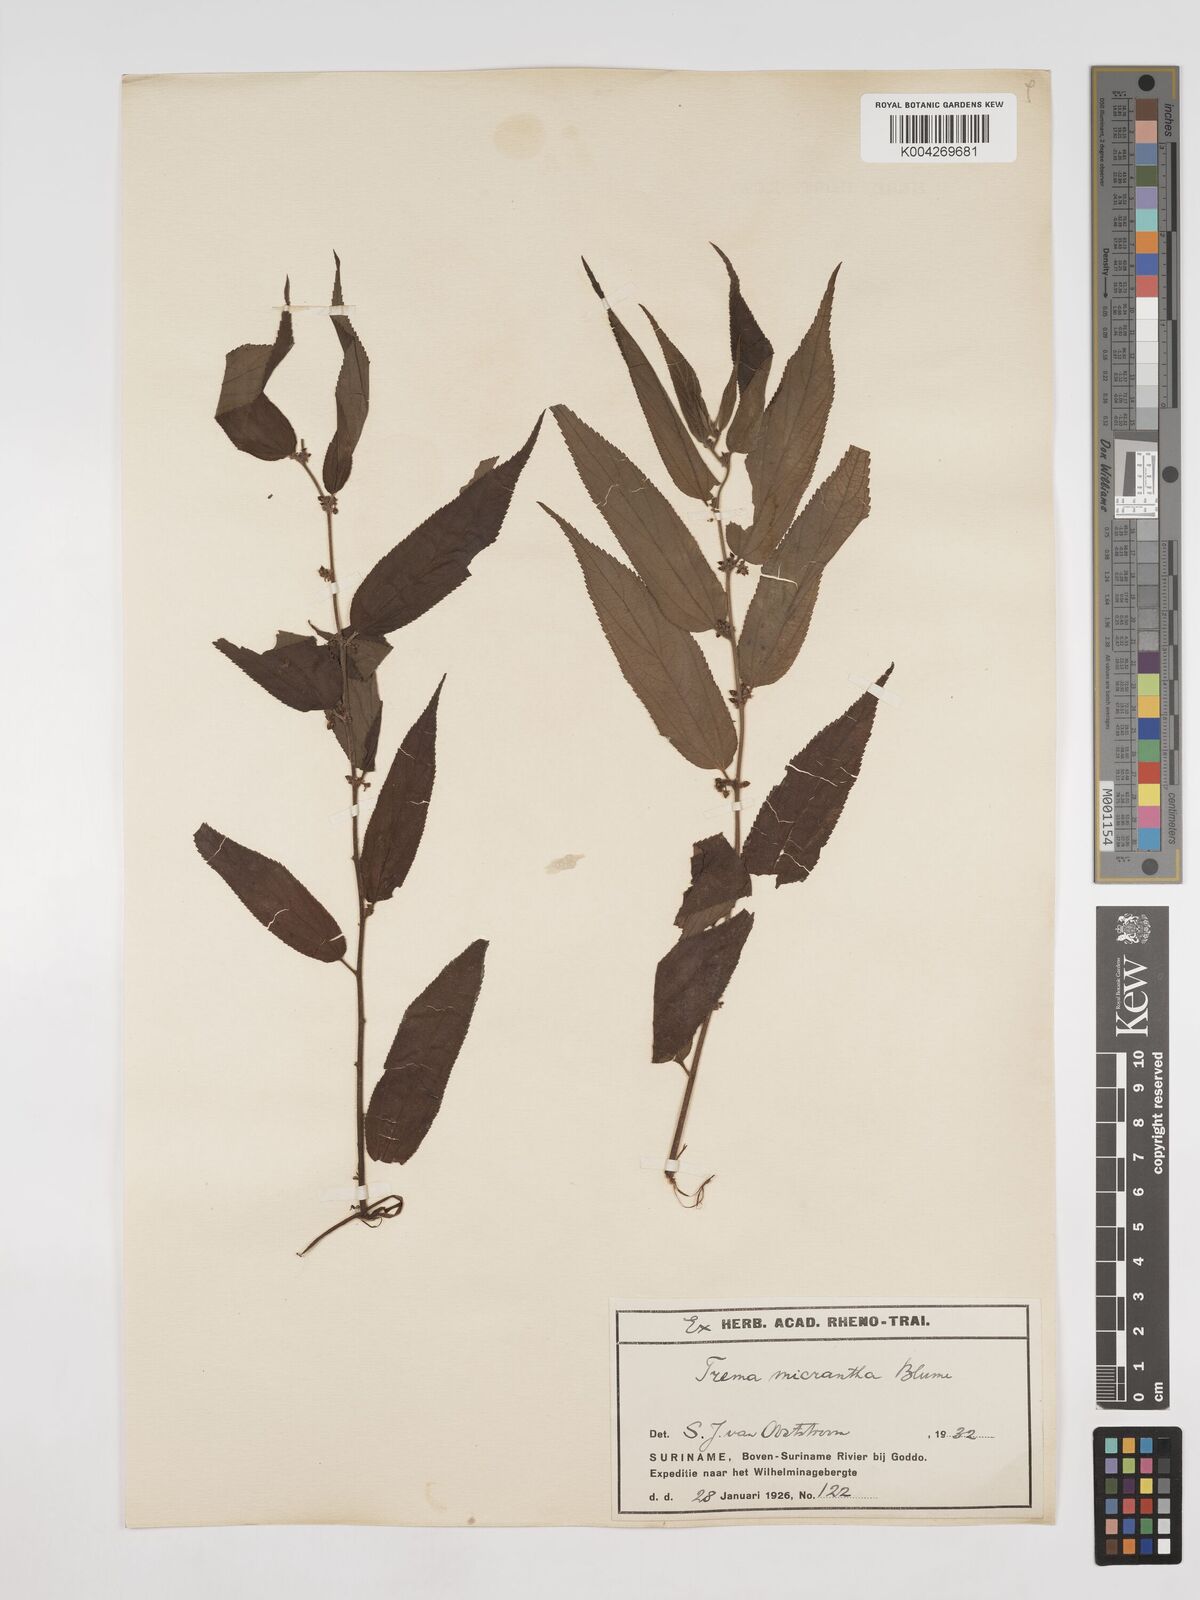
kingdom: Plantae
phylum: Tracheophyta
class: Magnoliopsida
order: Rosales
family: Cannabaceae
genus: Trema
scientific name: Trema micranthum
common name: Jamaican nettletree
